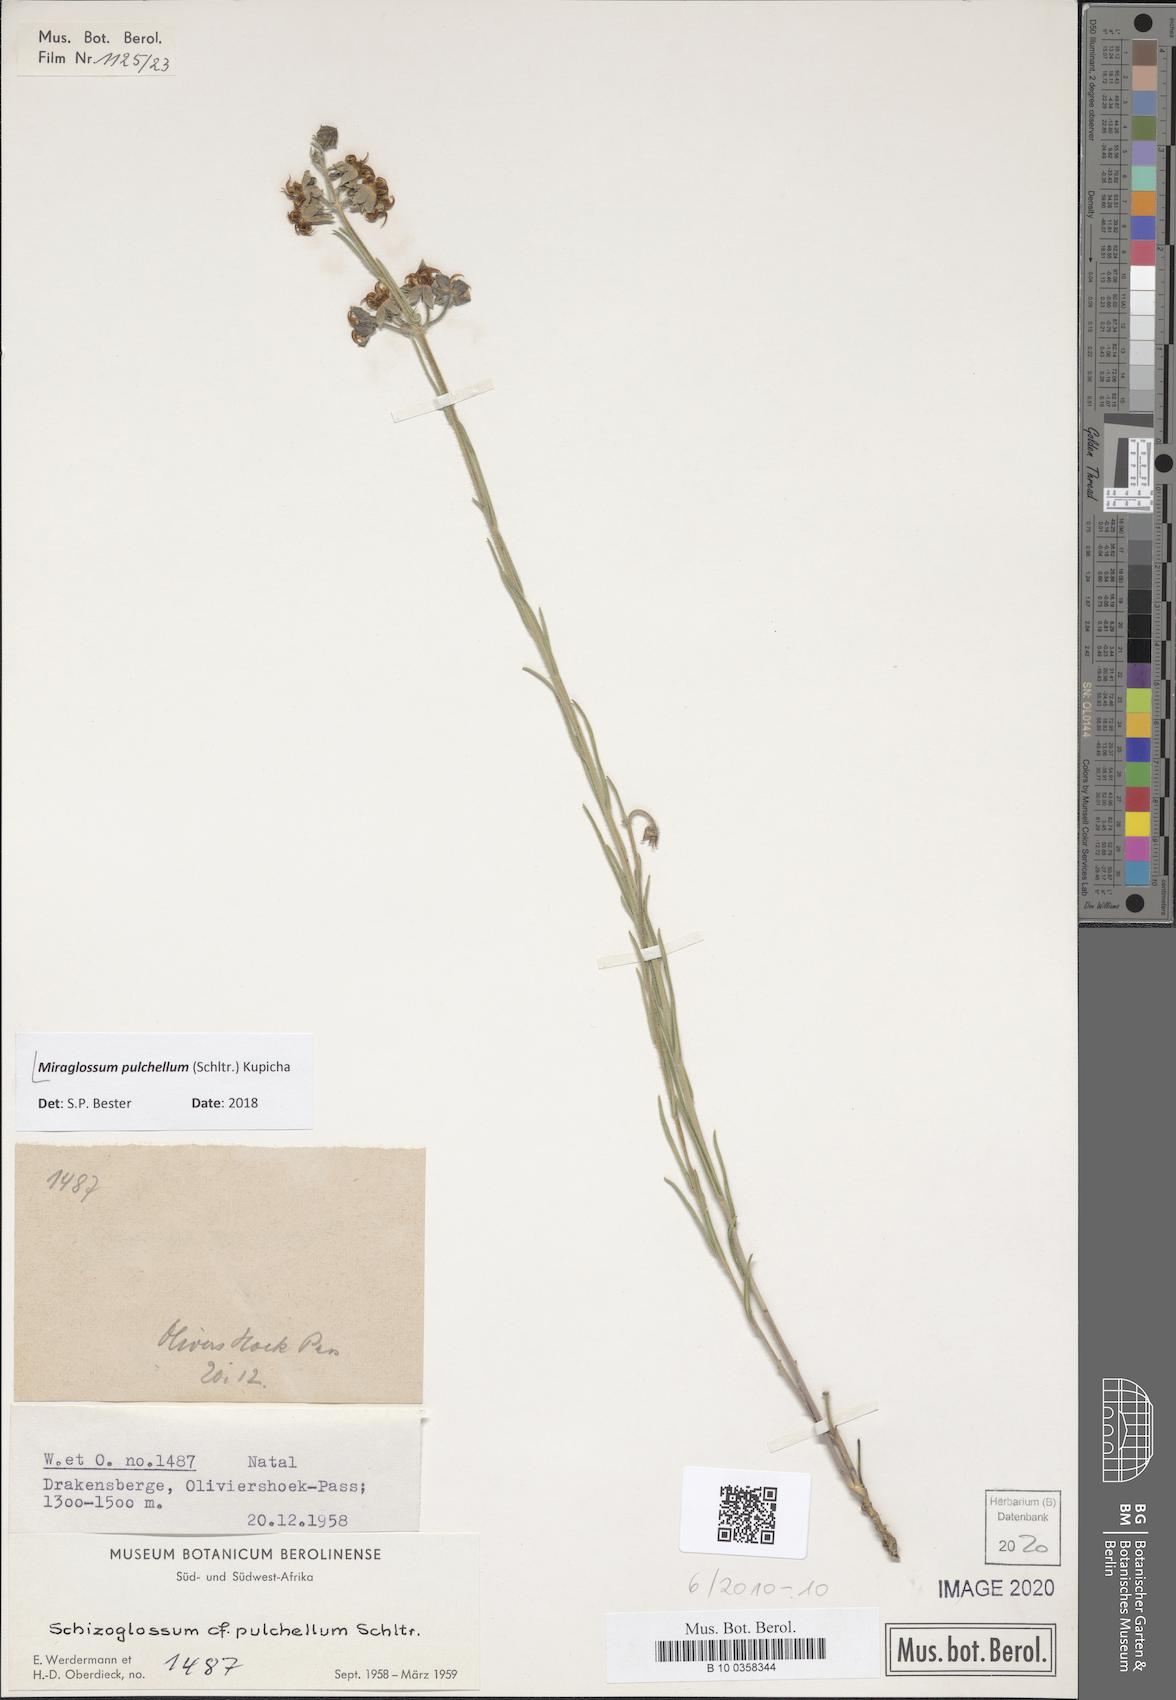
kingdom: Plantae
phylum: Tracheophyta
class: Magnoliopsida
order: Gentianales
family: Apocynaceae
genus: Miraglossum
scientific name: Miraglossum pulchellum
